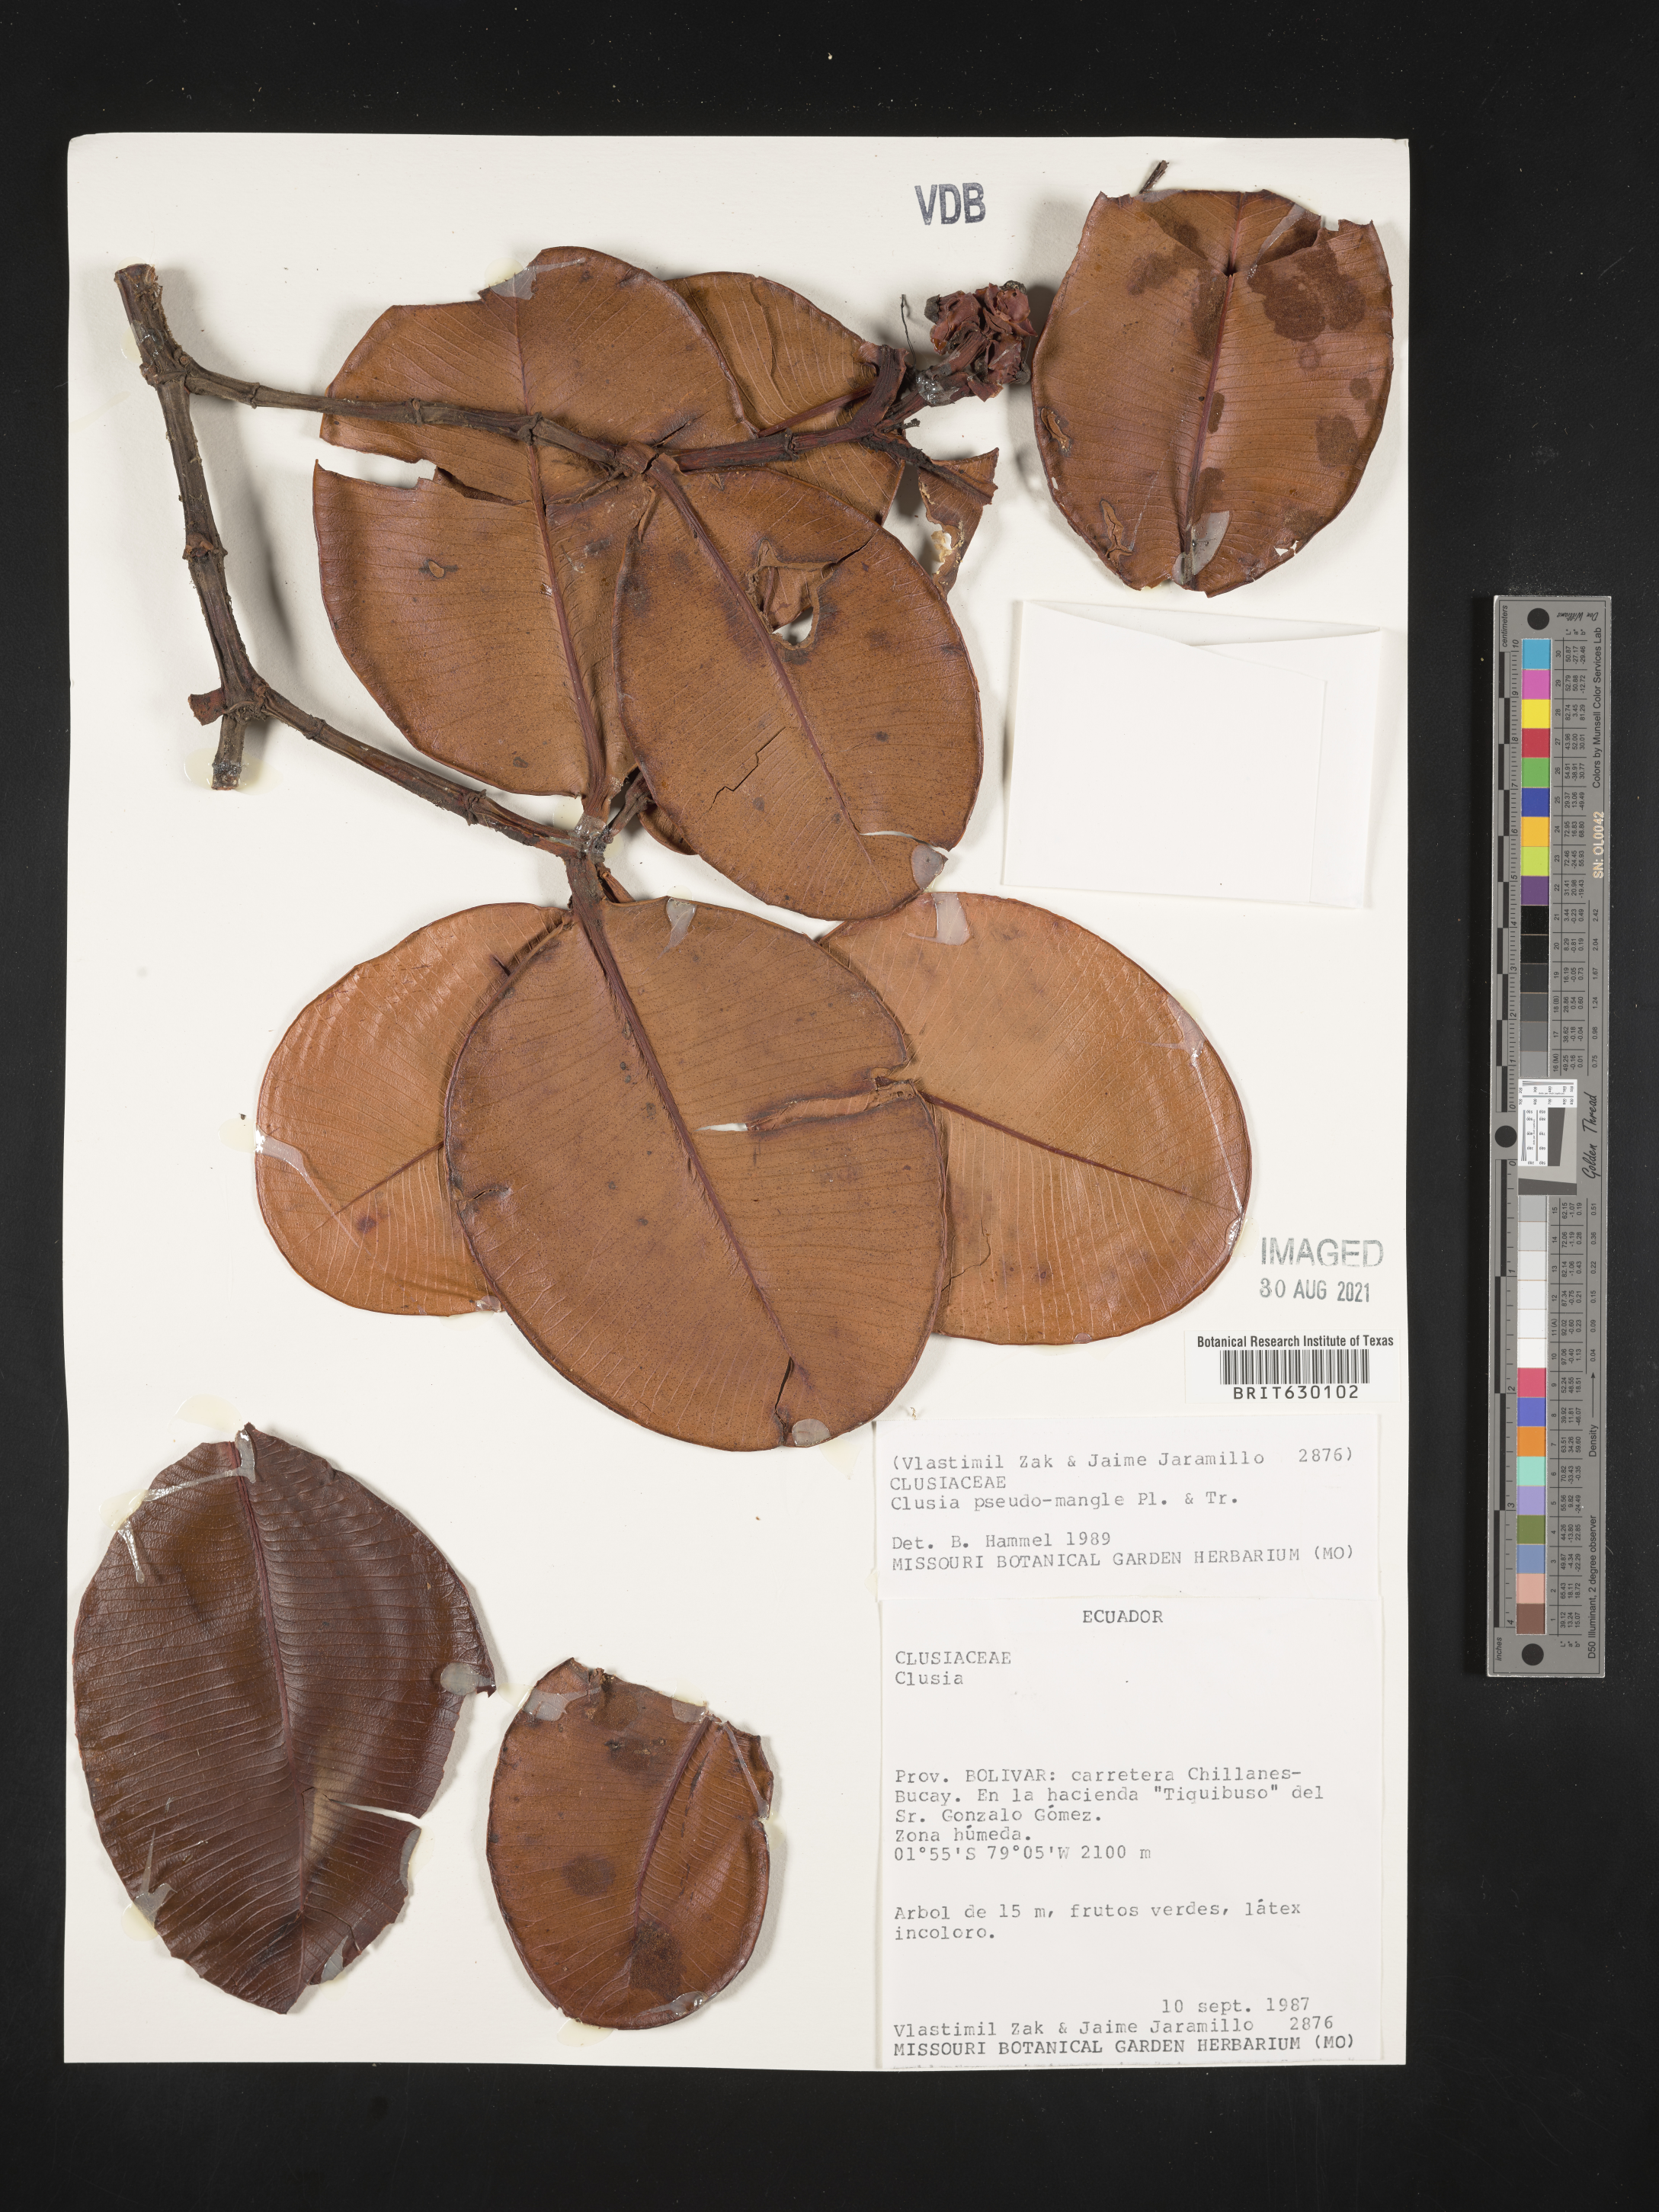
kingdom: Plantae
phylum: Tracheophyta
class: Magnoliopsida
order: Malpighiales
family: Clusiaceae
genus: Clusia
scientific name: Clusia pseudomangle
